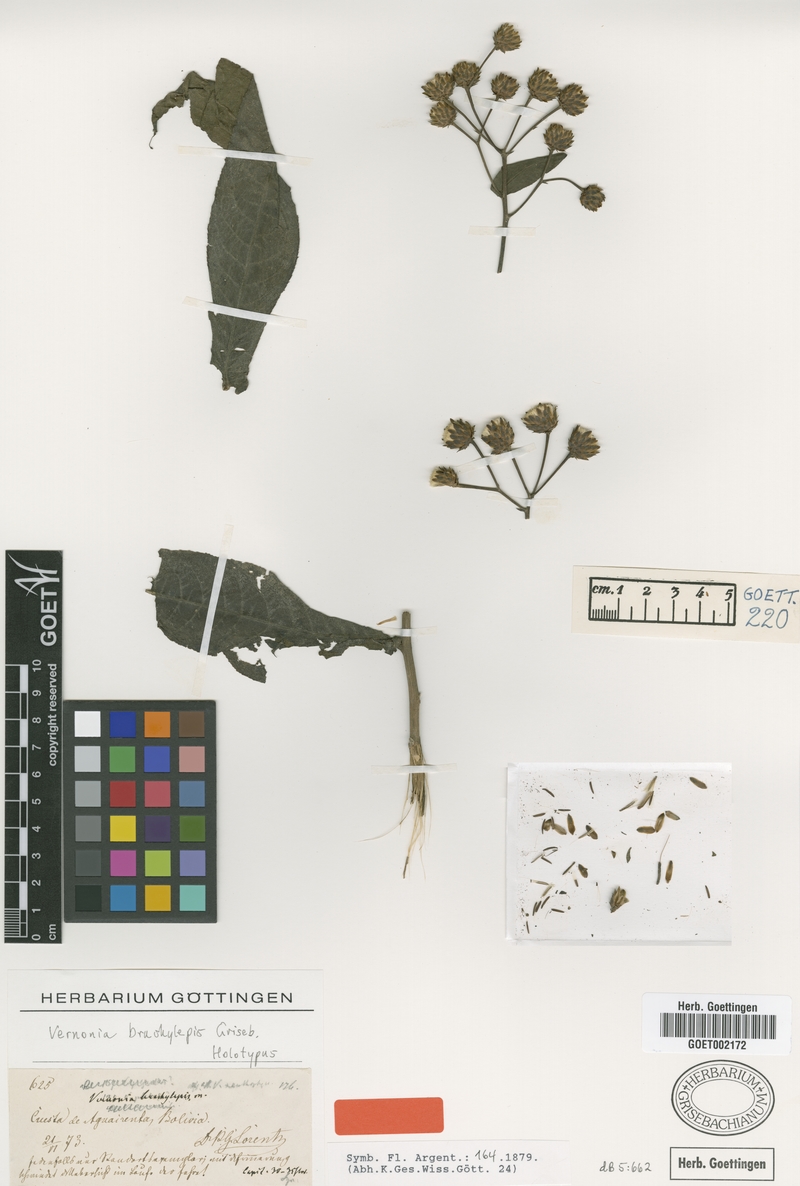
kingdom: Plantae
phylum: Tracheophyta
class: Magnoliopsida
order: Asterales
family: Asteraceae
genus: Centratherum
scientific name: Centratherum punctatum
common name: Larkdaisy
